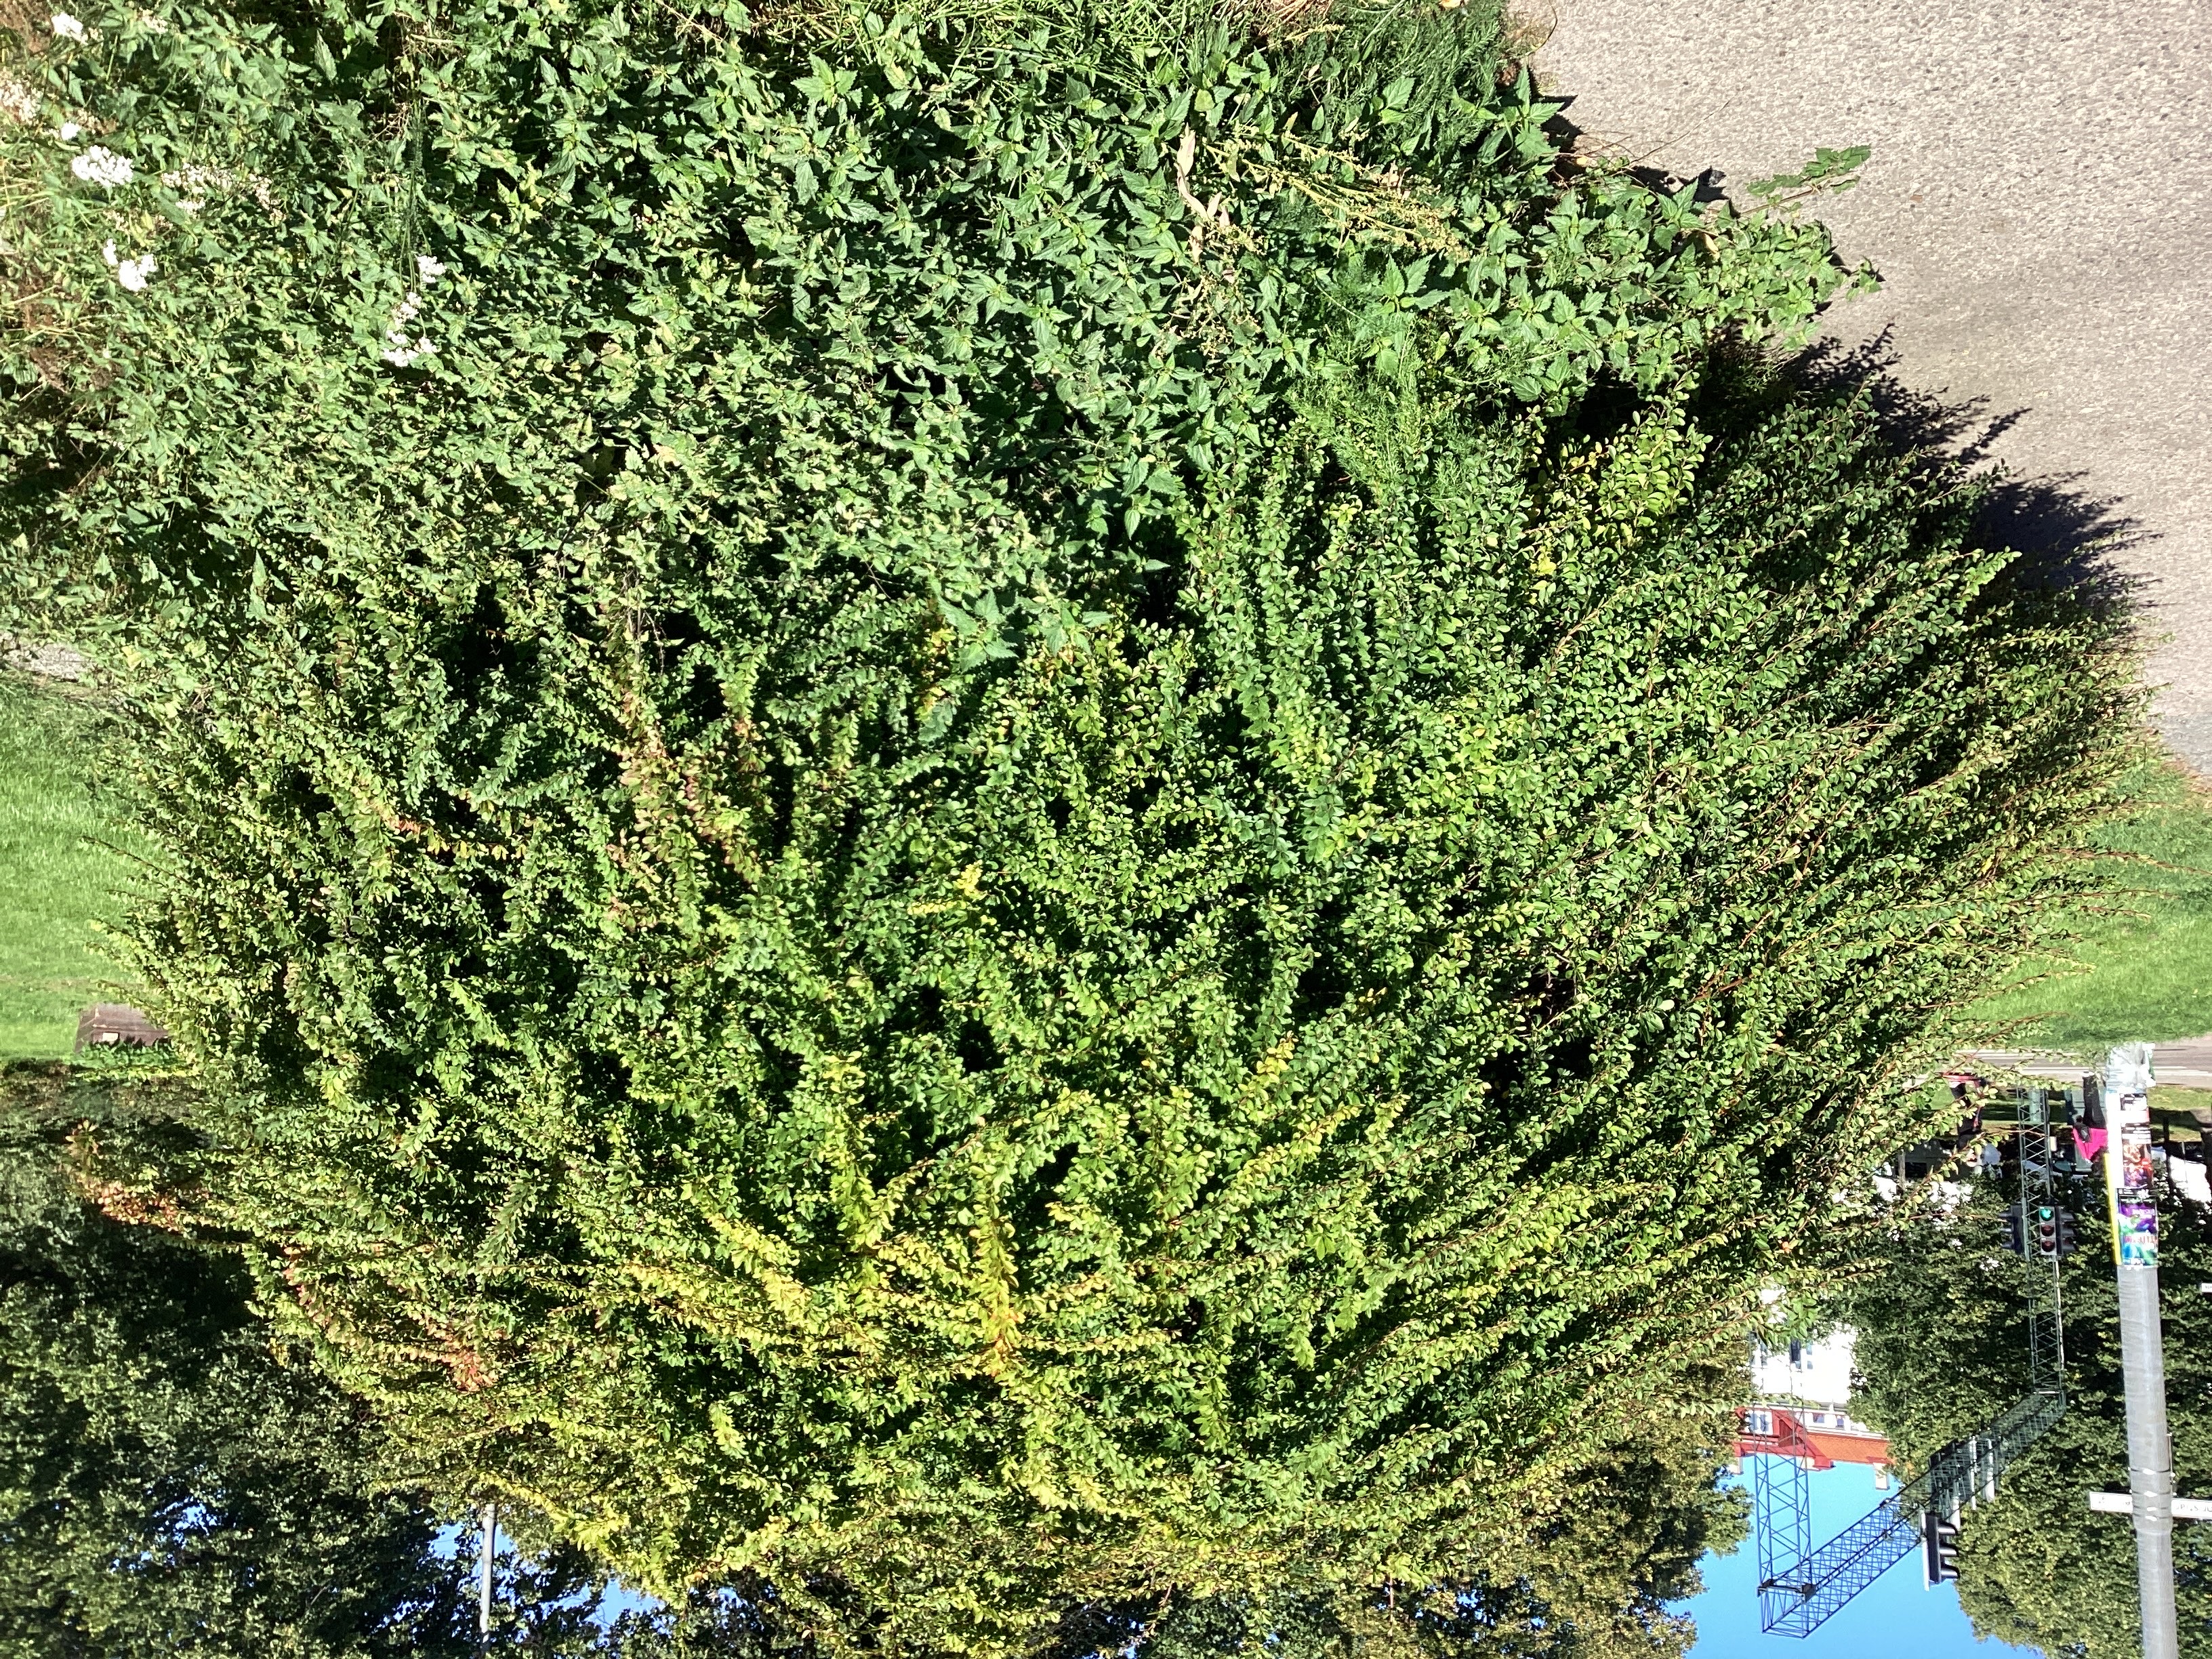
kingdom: Plantae
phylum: Tracheophyta
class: Magnoliopsida
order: Ranunculales
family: Berberidaceae
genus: Berberis
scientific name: Berberis thunbergii
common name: høstberberis
